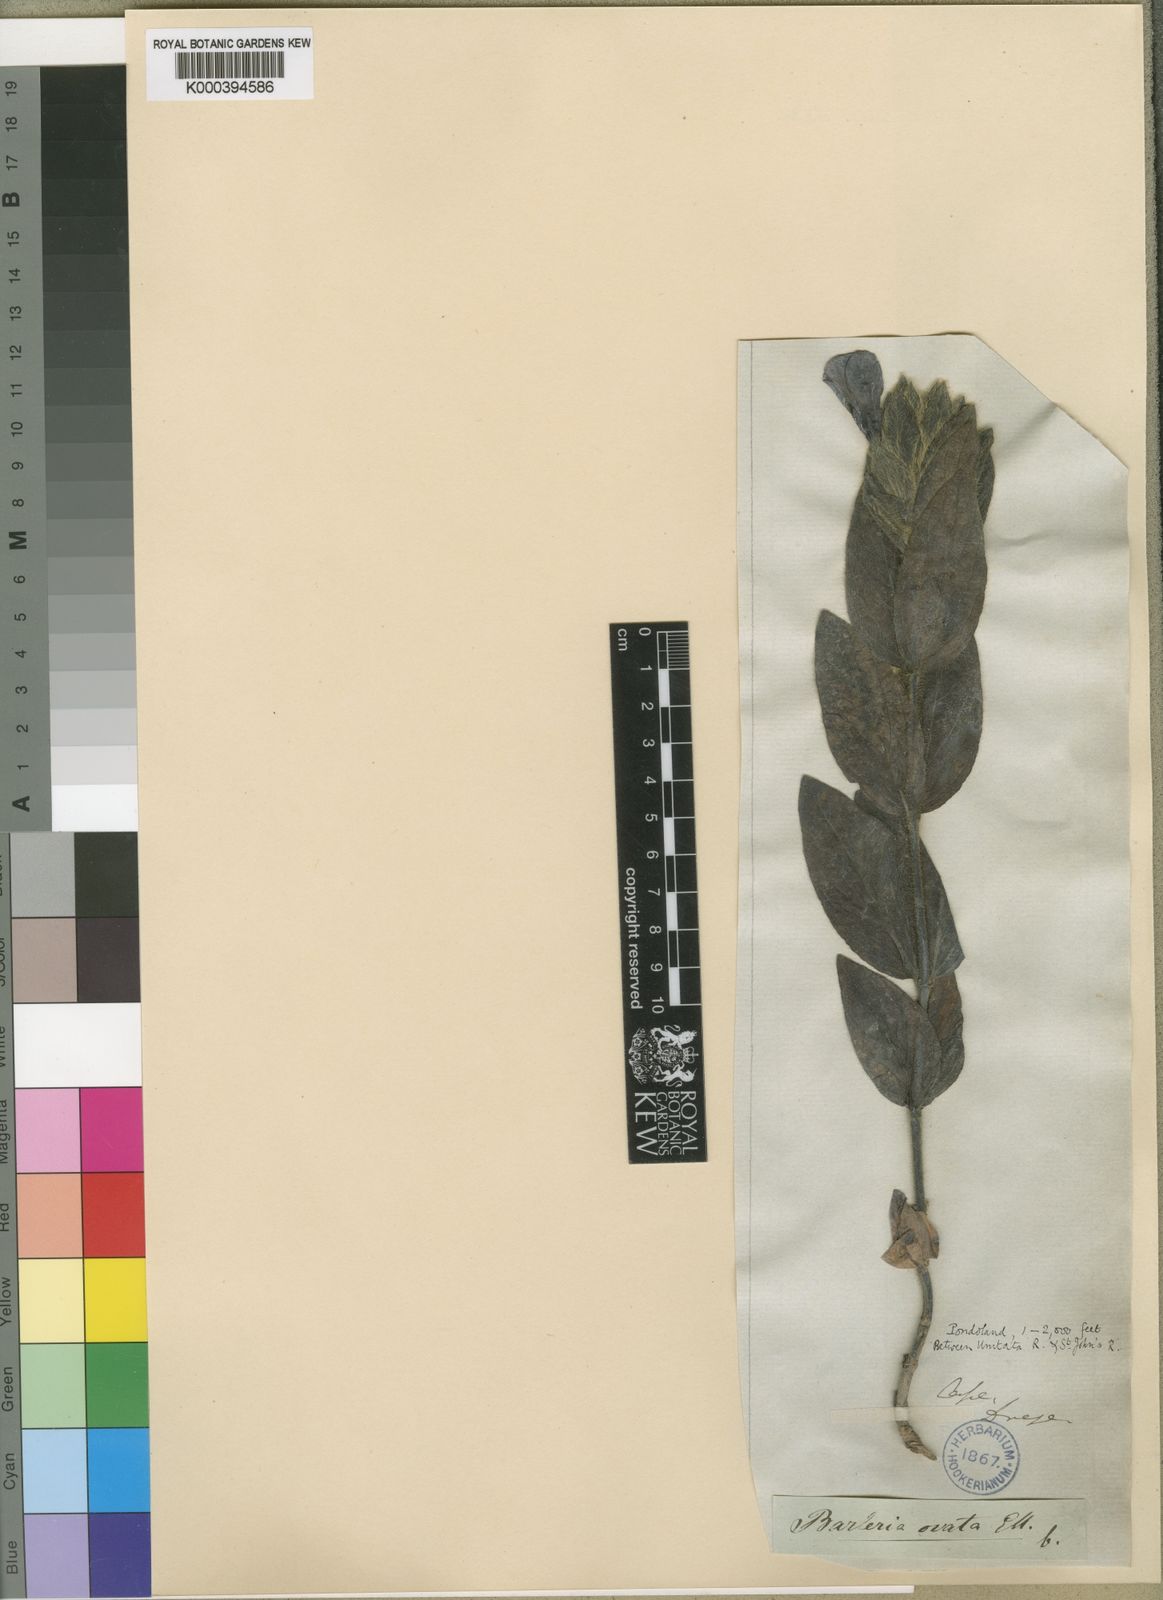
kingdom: Plantae
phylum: Tracheophyta
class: Magnoliopsida
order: Lamiales
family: Acanthaceae
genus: Barleria
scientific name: Barleria ovata
